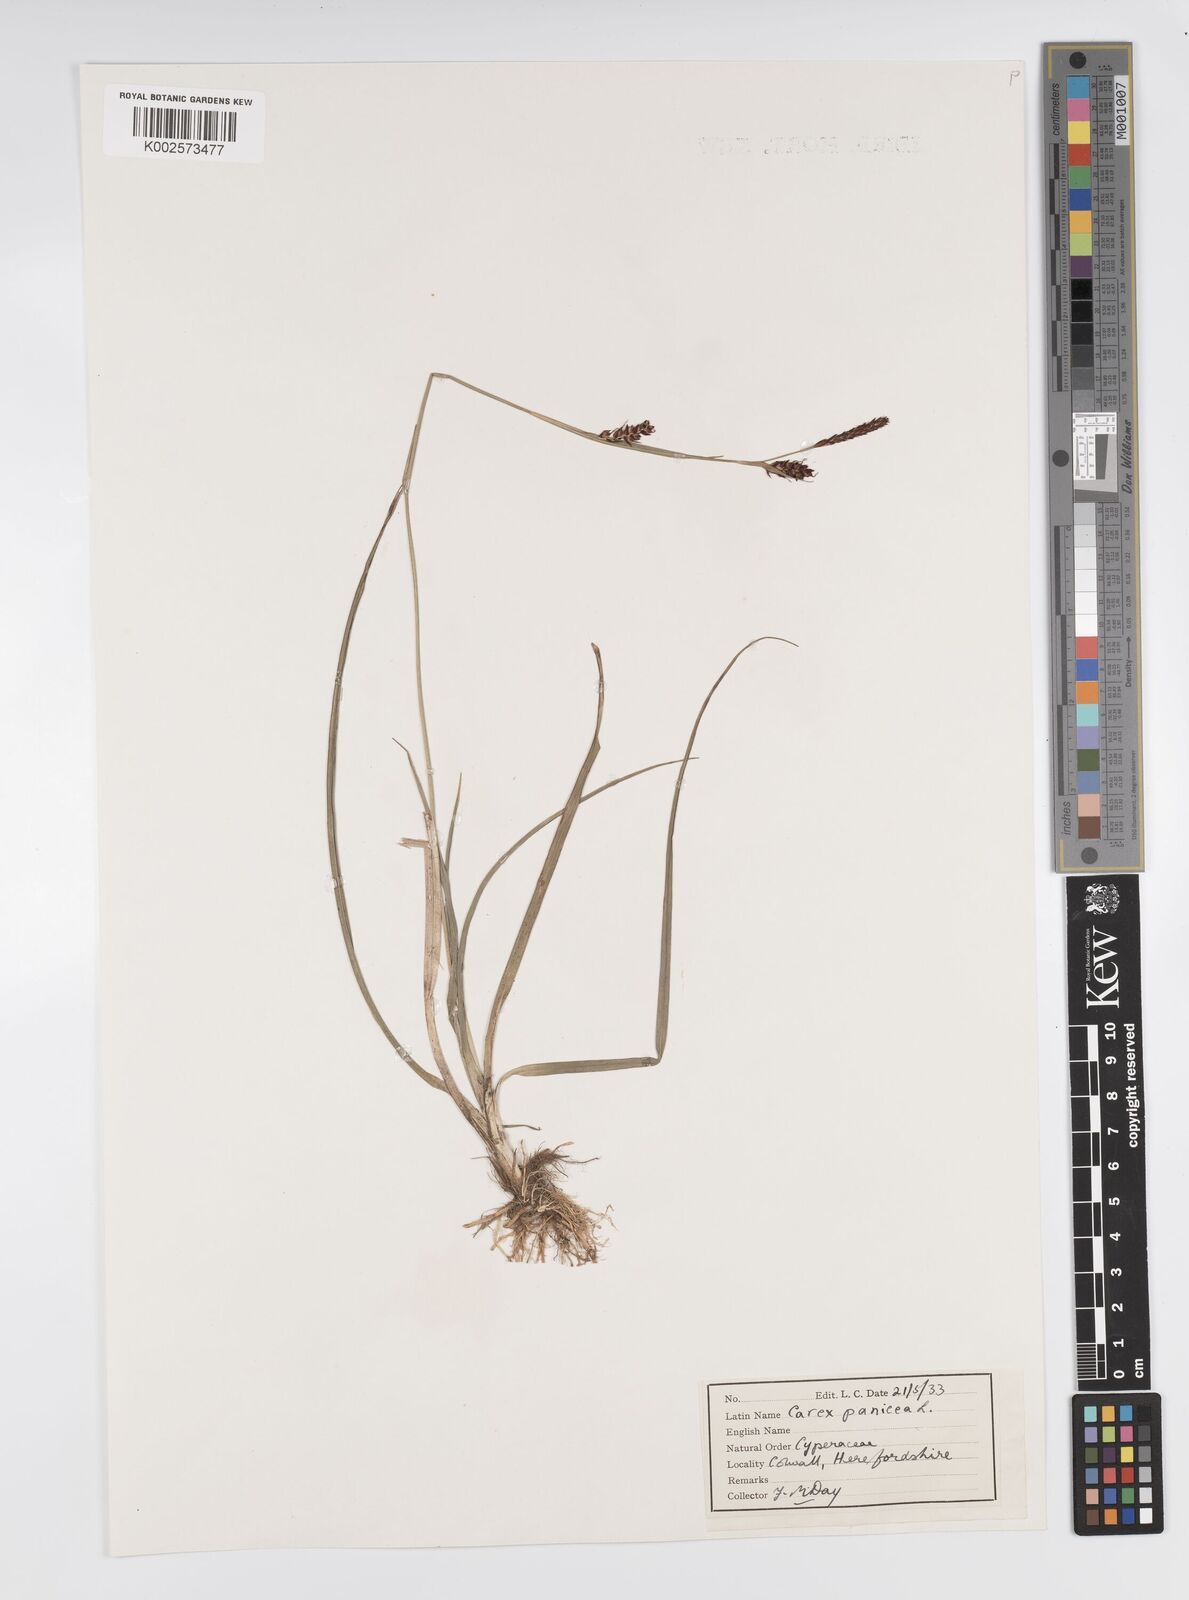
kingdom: Plantae
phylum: Tracheophyta
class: Liliopsida
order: Poales
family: Cyperaceae
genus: Carex
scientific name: Carex panicea
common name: Carnation sedge
